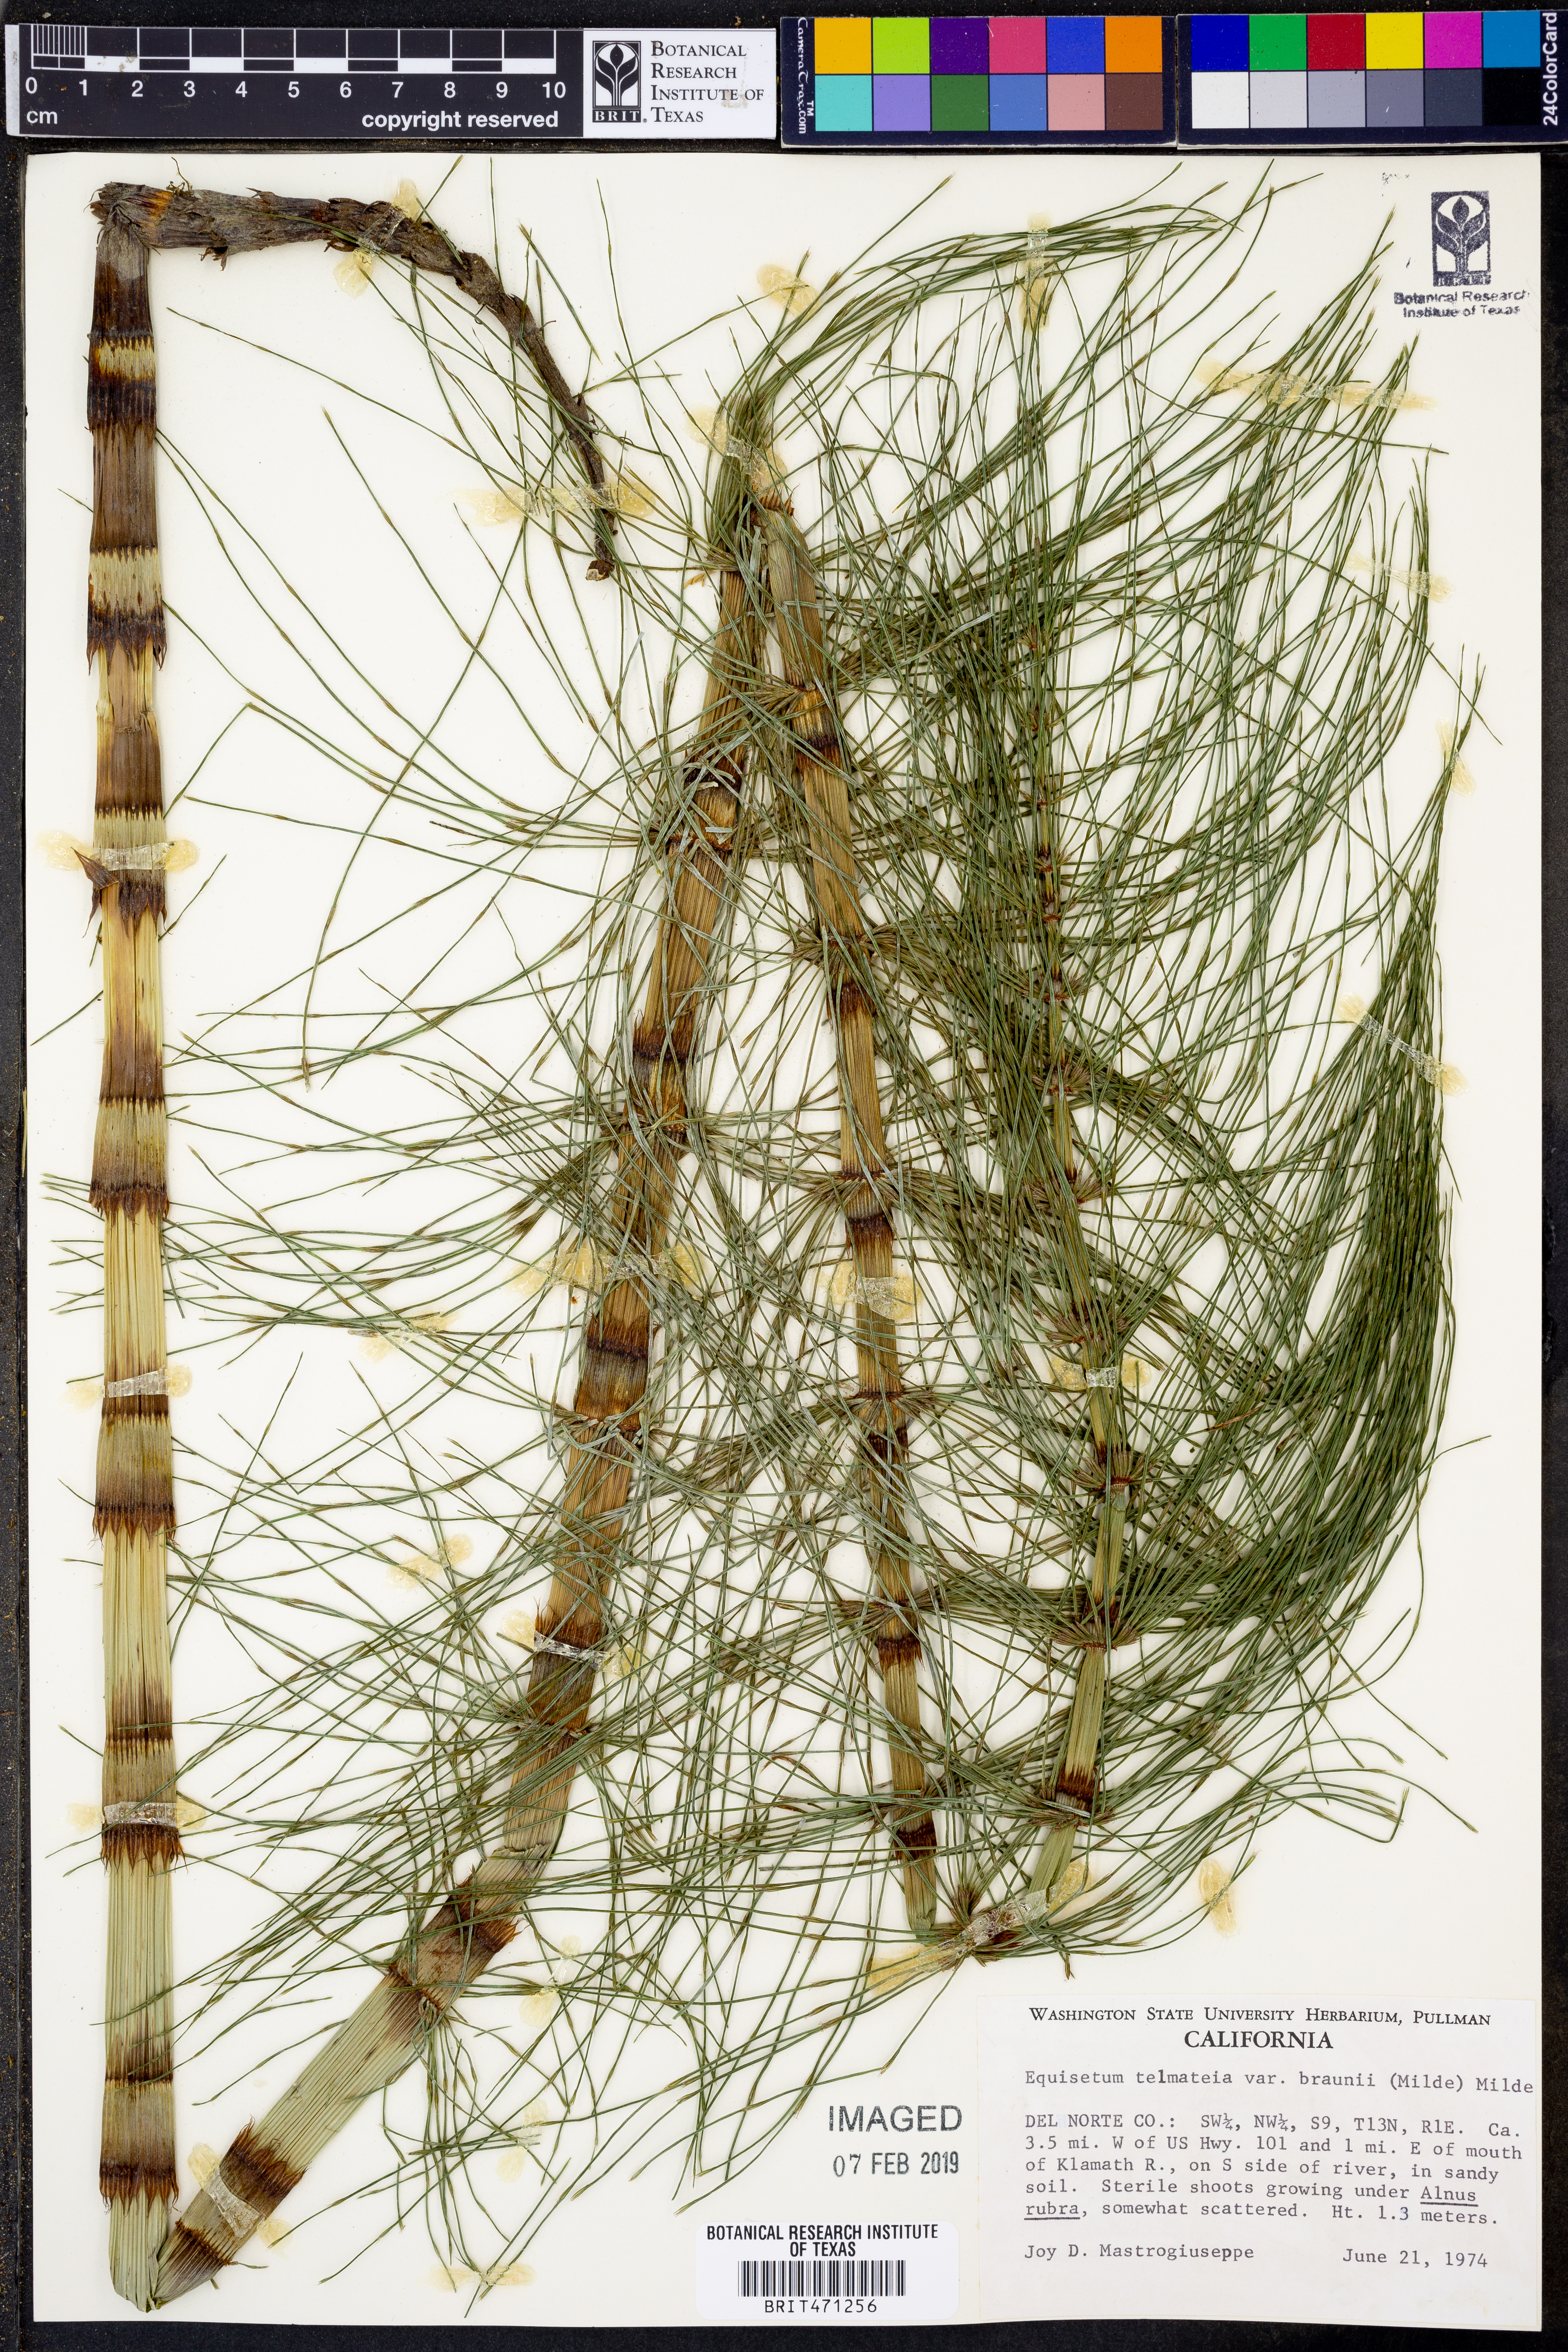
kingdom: Plantae
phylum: Tracheophyta
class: Polypodiopsida
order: Equisetales
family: Equisetaceae
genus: Equisetum
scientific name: Equisetum braunii
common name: Braun's horsetail
